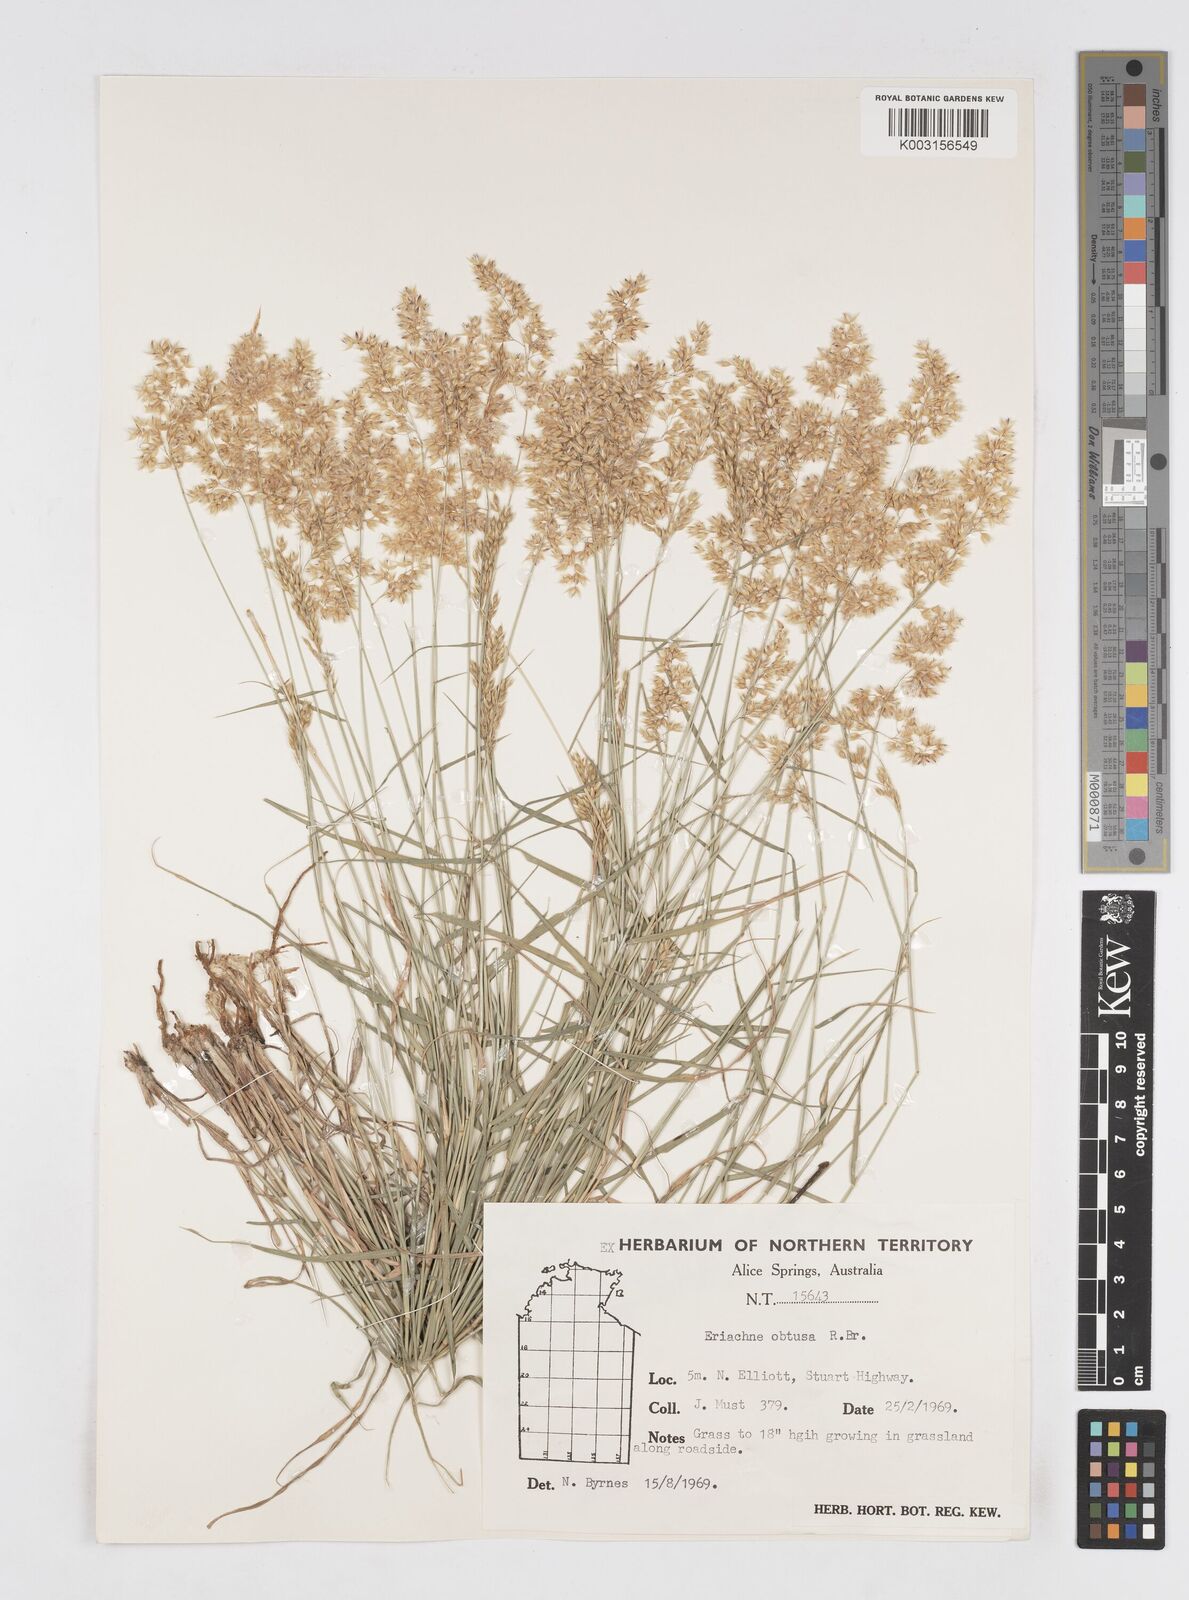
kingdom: Plantae
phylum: Tracheophyta
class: Liliopsida
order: Poales
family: Poaceae
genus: Eriachne
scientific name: Eriachne obtusa
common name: Northern wanderrie grass
